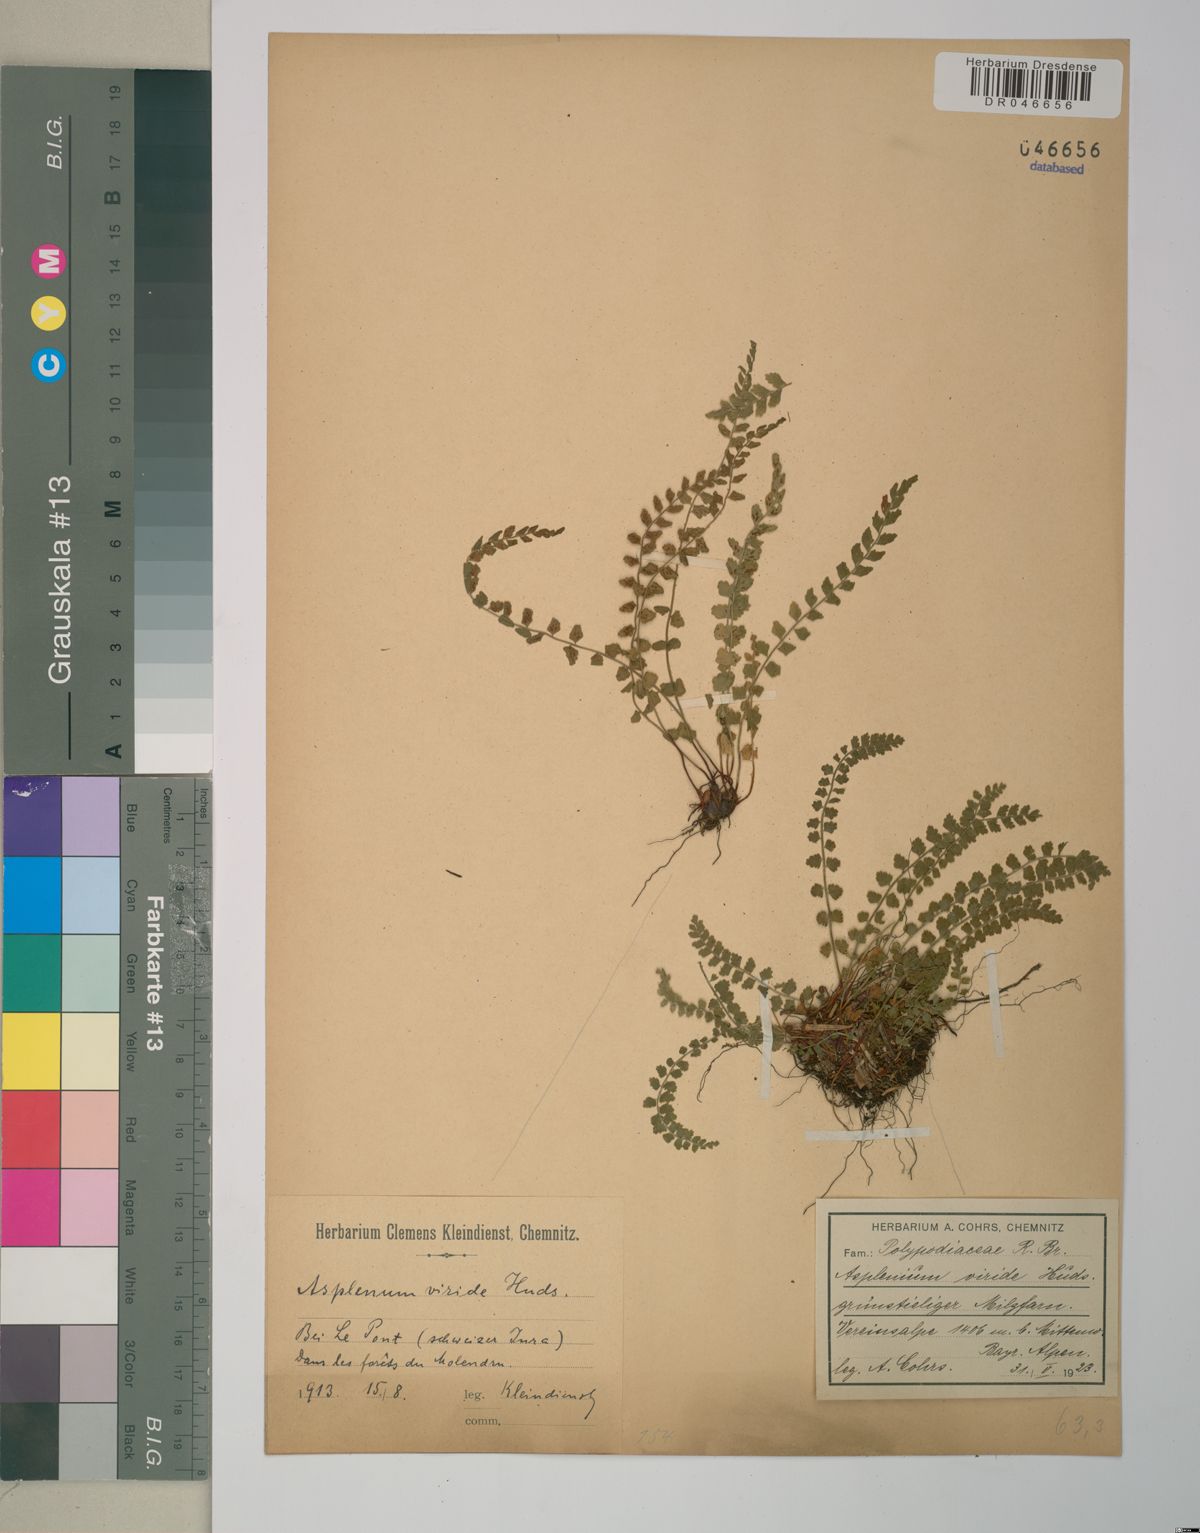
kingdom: Plantae
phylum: Tracheophyta
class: Polypodiopsida
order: Polypodiales
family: Aspleniaceae
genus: Asplenium
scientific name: Asplenium viride
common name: Green spleenwort
